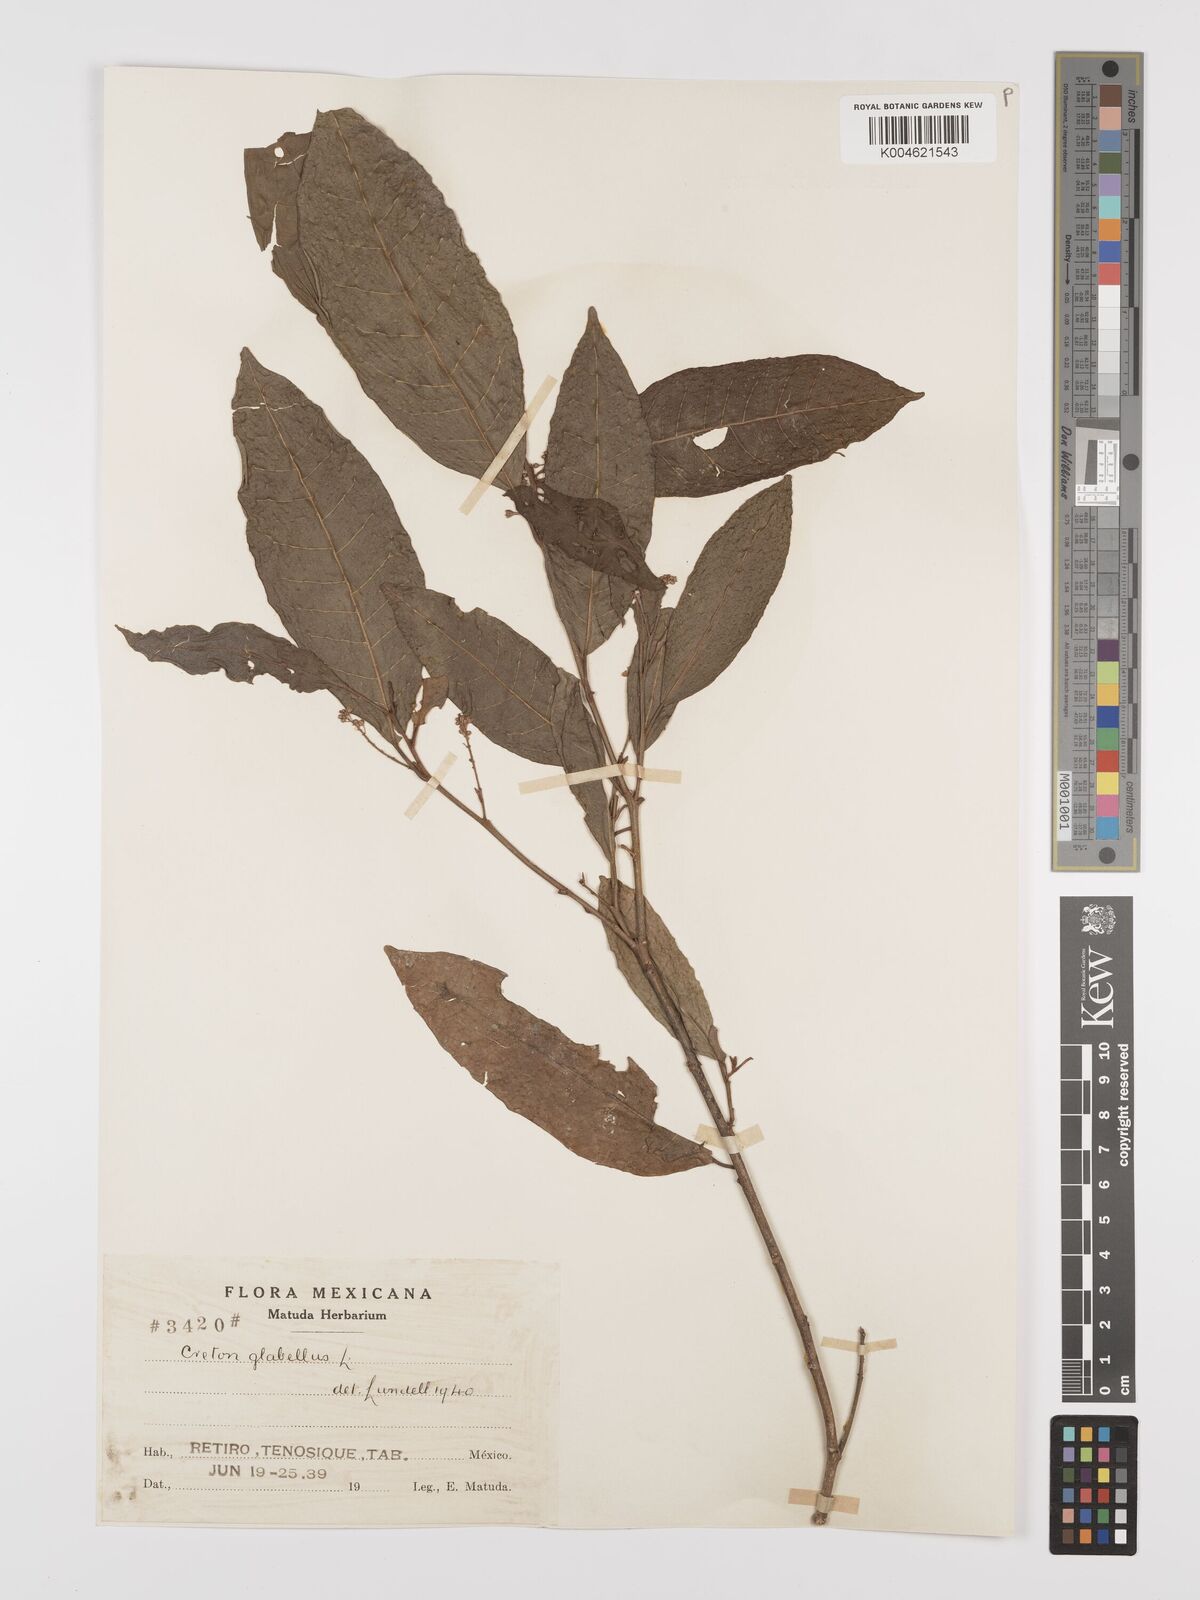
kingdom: Plantae
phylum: Tracheophyta
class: Magnoliopsida
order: Malpighiales
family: Euphorbiaceae
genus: Croton
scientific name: Croton glabellus
